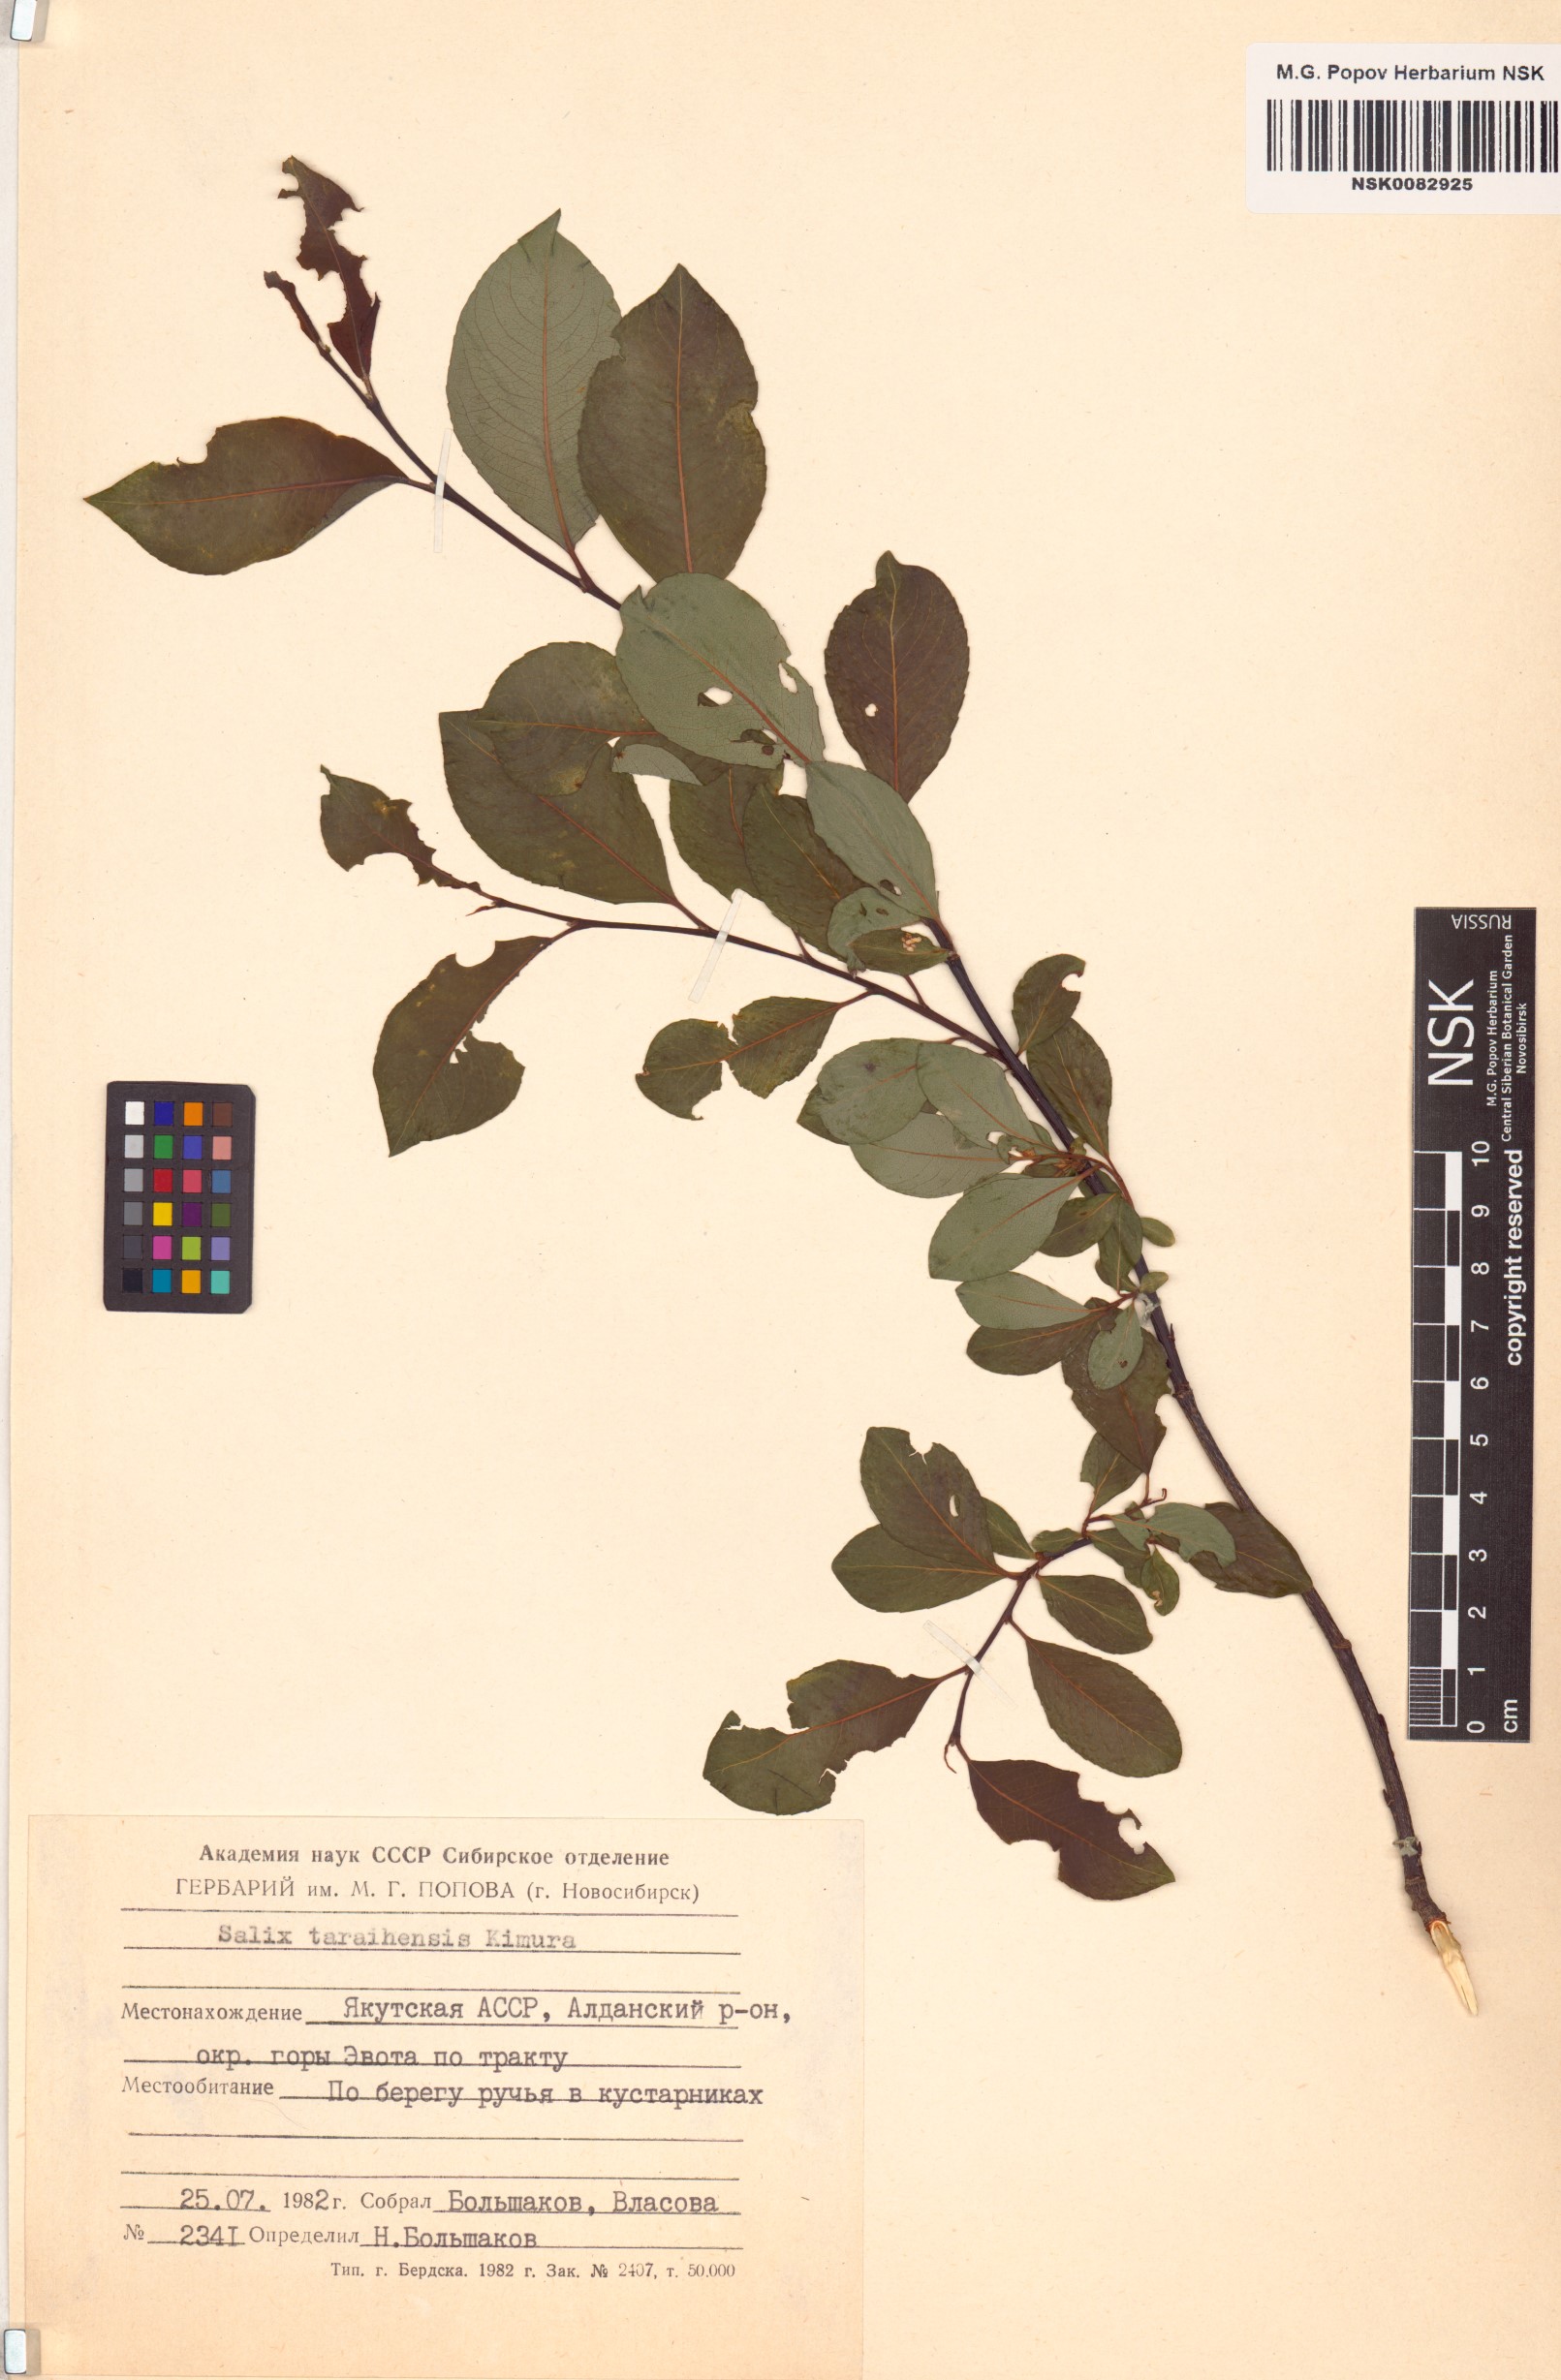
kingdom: Plantae
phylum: Tracheophyta
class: Magnoliopsida
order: Malpighiales
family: Salicaceae
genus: Salix
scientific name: Salix taraikensis
